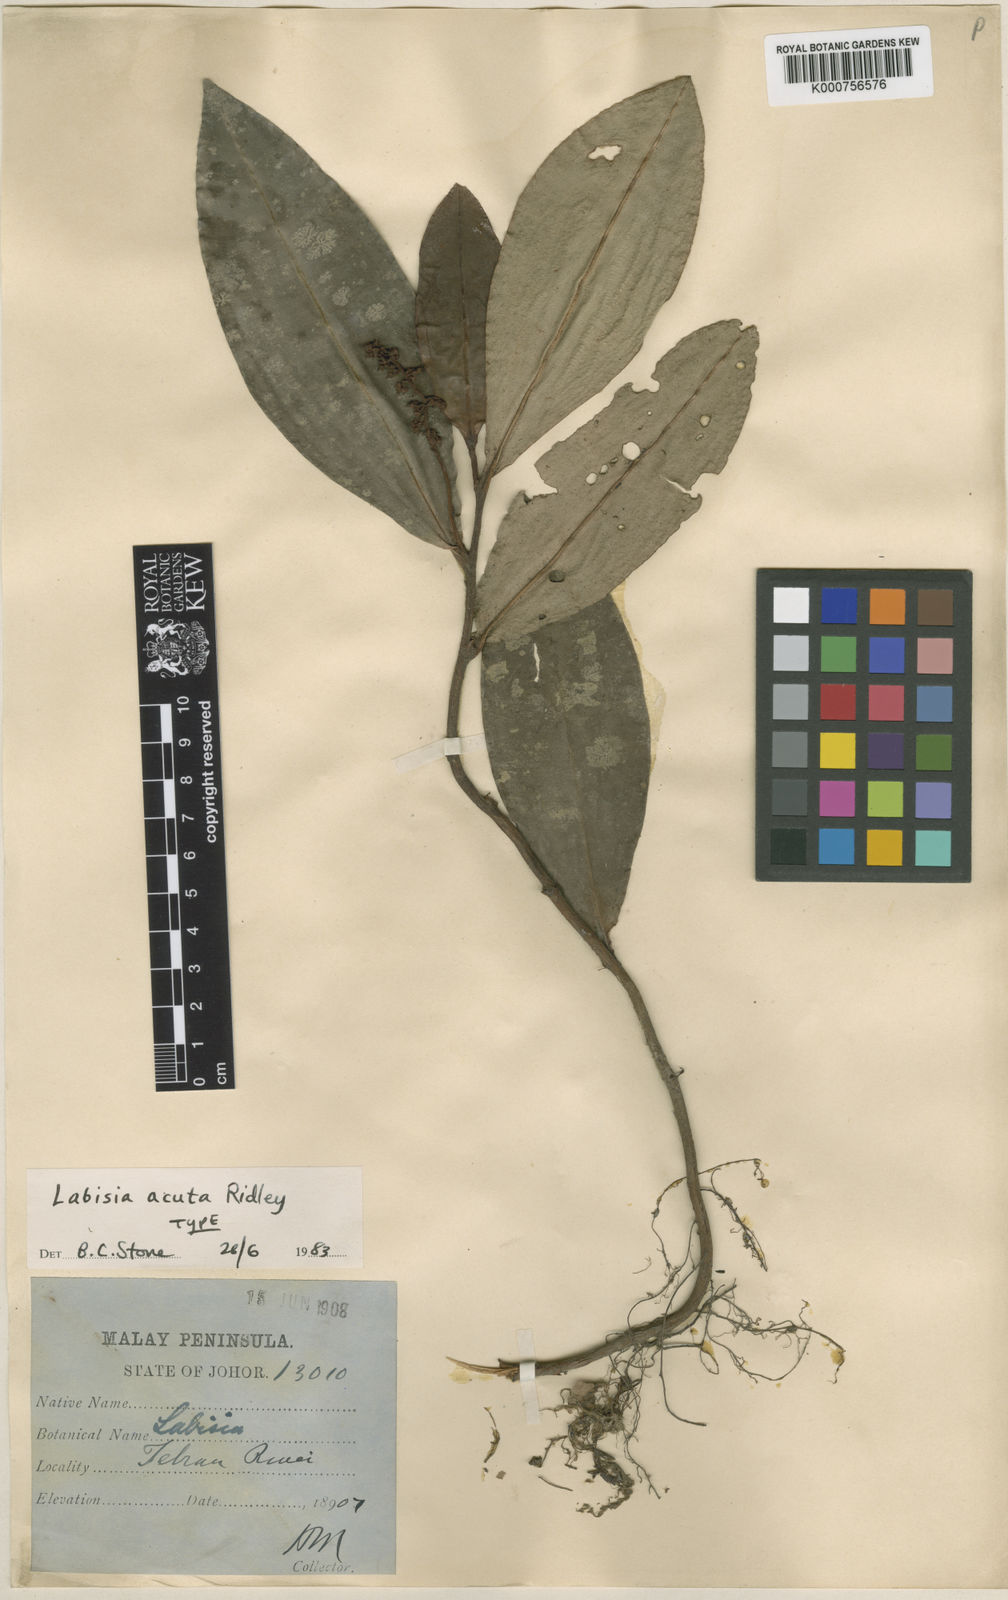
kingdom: Plantae
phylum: Tracheophyta
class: Magnoliopsida
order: Ericales
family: Primulaceae
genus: Labisia
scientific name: Labisia acuta
